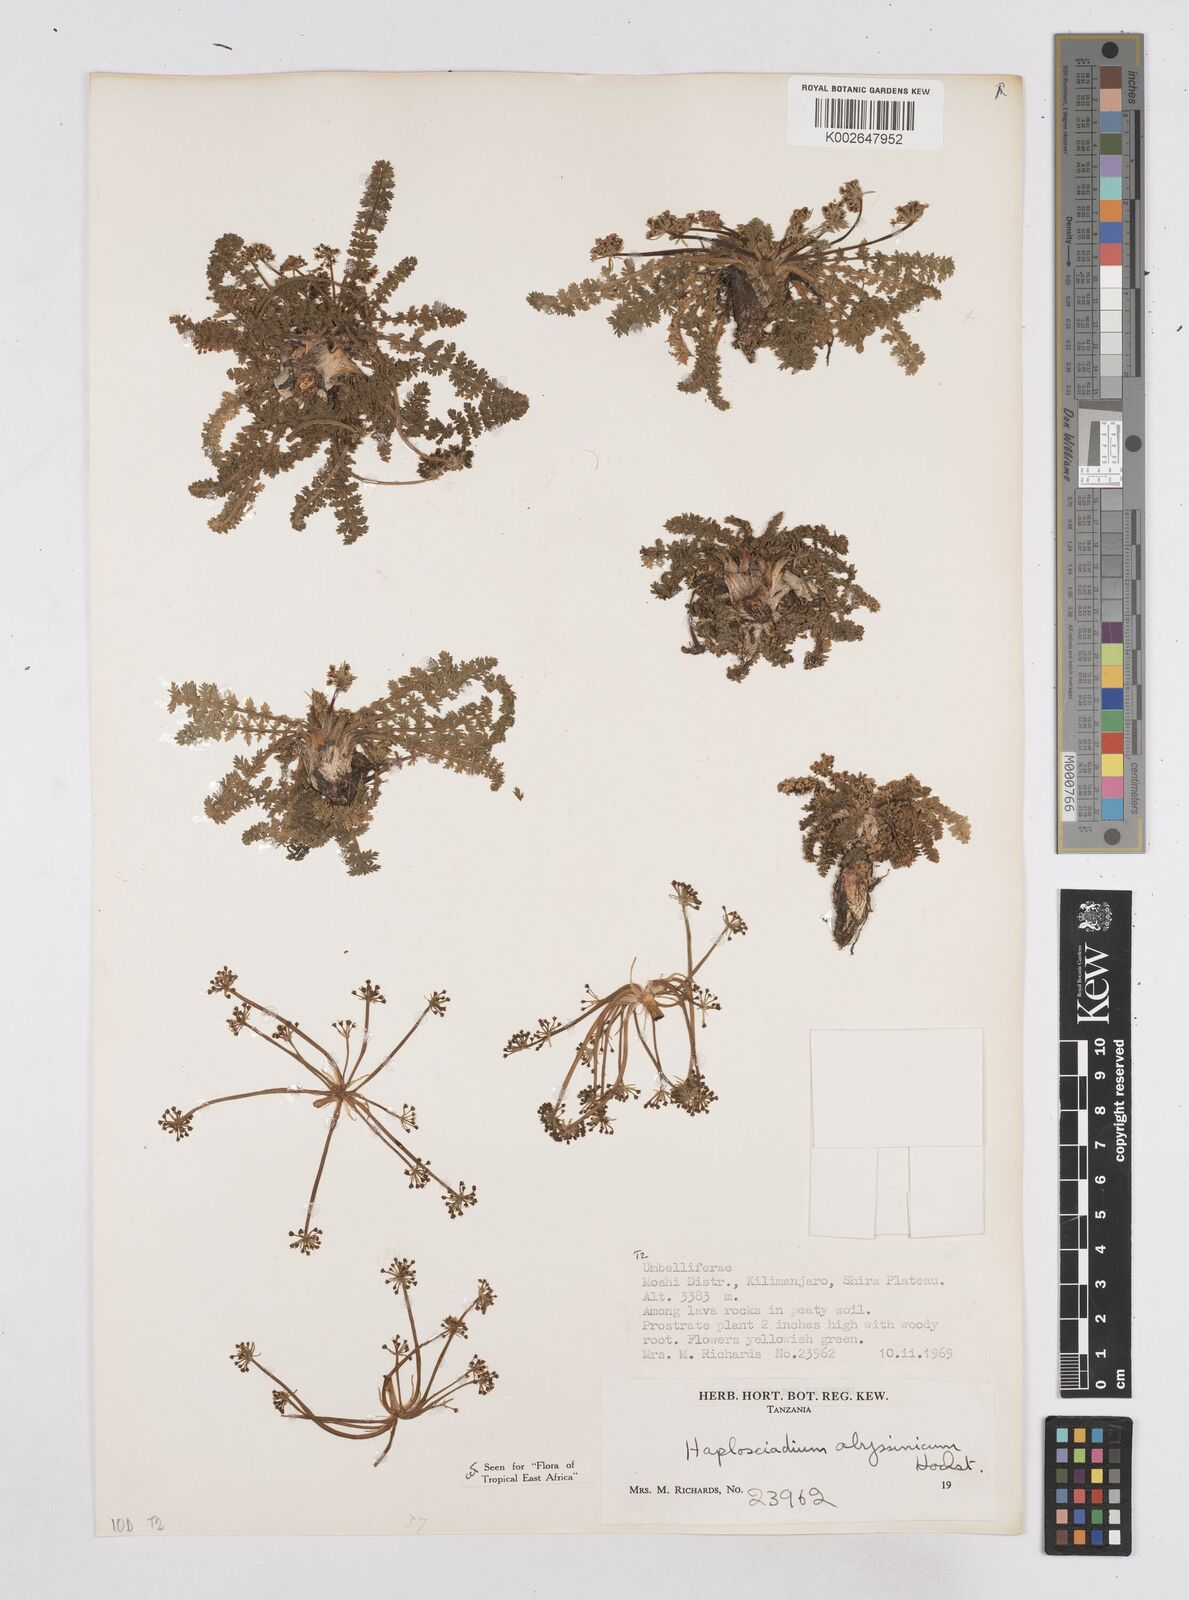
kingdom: Plantae
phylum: Tracheophyta
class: Magnoliopsida
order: Apiales
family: Apiaceae
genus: Haplosciadium
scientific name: Haplosciadium abyssinicum
